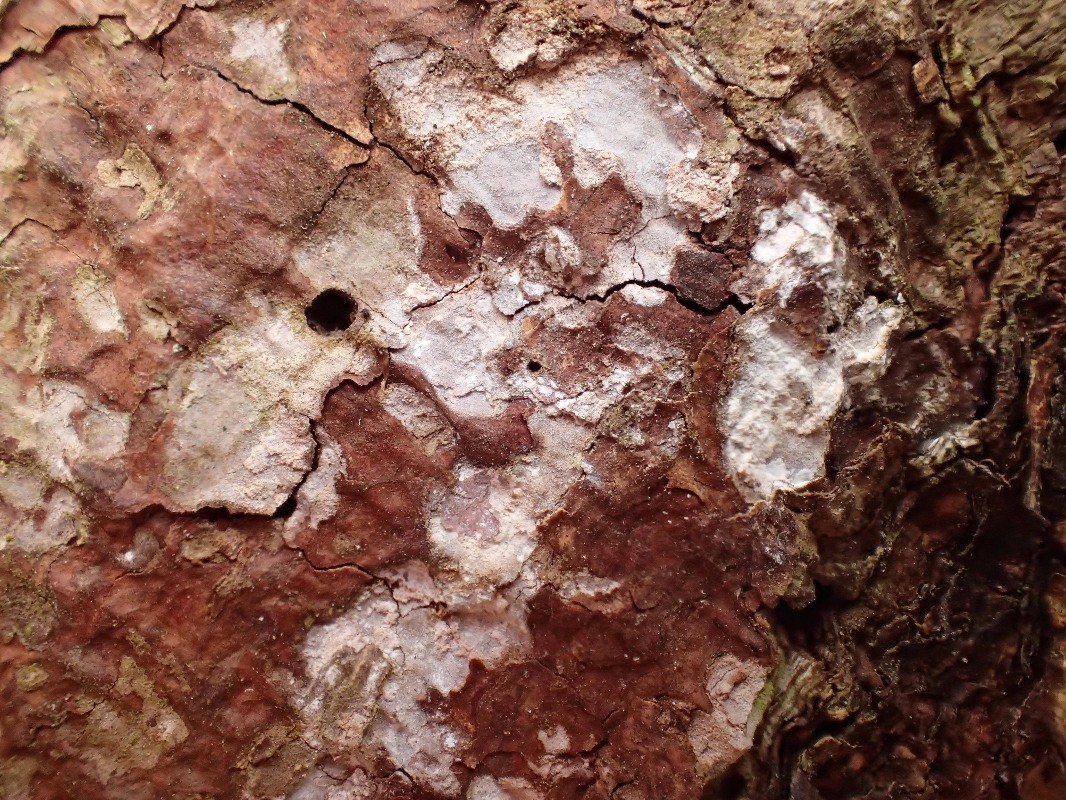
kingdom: Fungi
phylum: Basidiomycota
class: Agaricomycetes
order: Corticiales
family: Corticiaceae
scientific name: Corticiaceae
